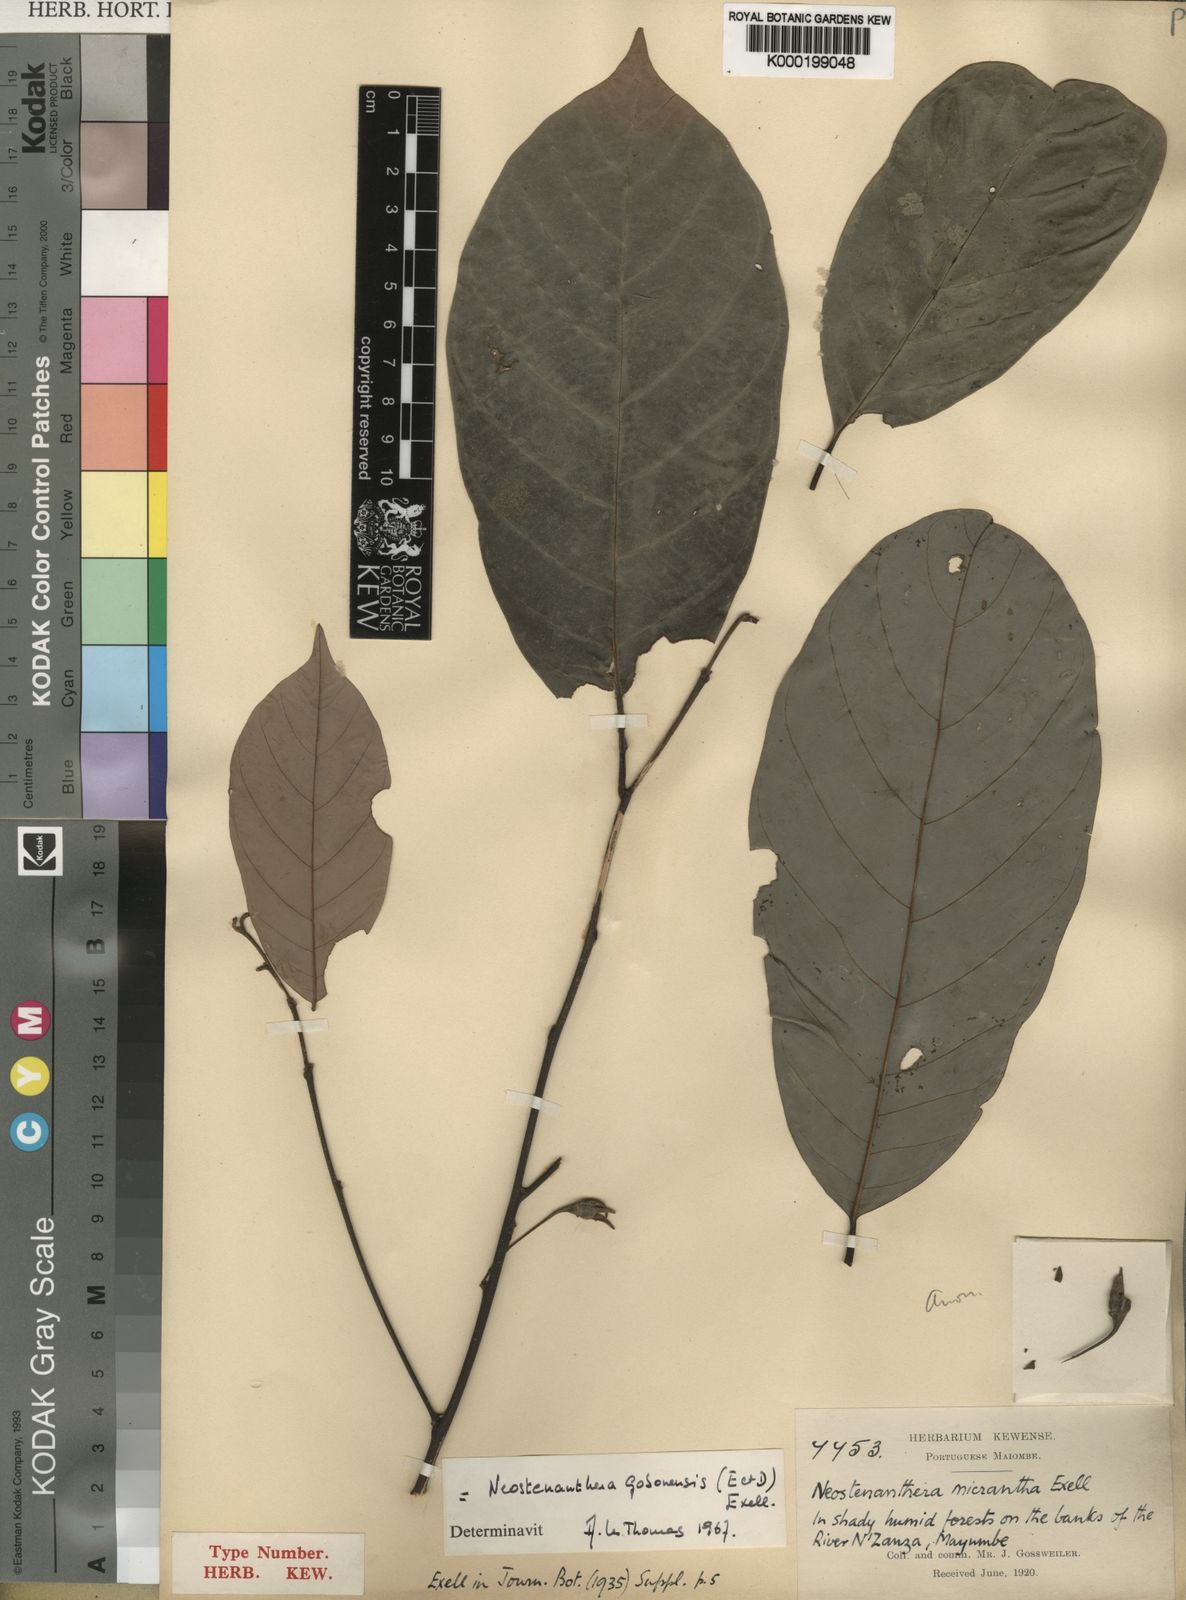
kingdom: Plantae
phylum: Tracheophyta
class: Magnoliopsida
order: Magnoliales
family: Annonaceae
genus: Neostenanthera
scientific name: Neostenanthera
